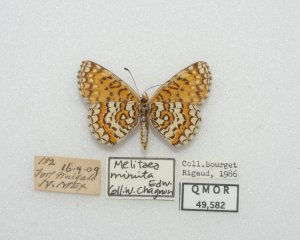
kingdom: Animalia
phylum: Arthropoda
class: Insecta
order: Lepidoptera
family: Nymphalidae
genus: Poladryas
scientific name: Poladryas minuta
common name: Arachne Checkerspot
